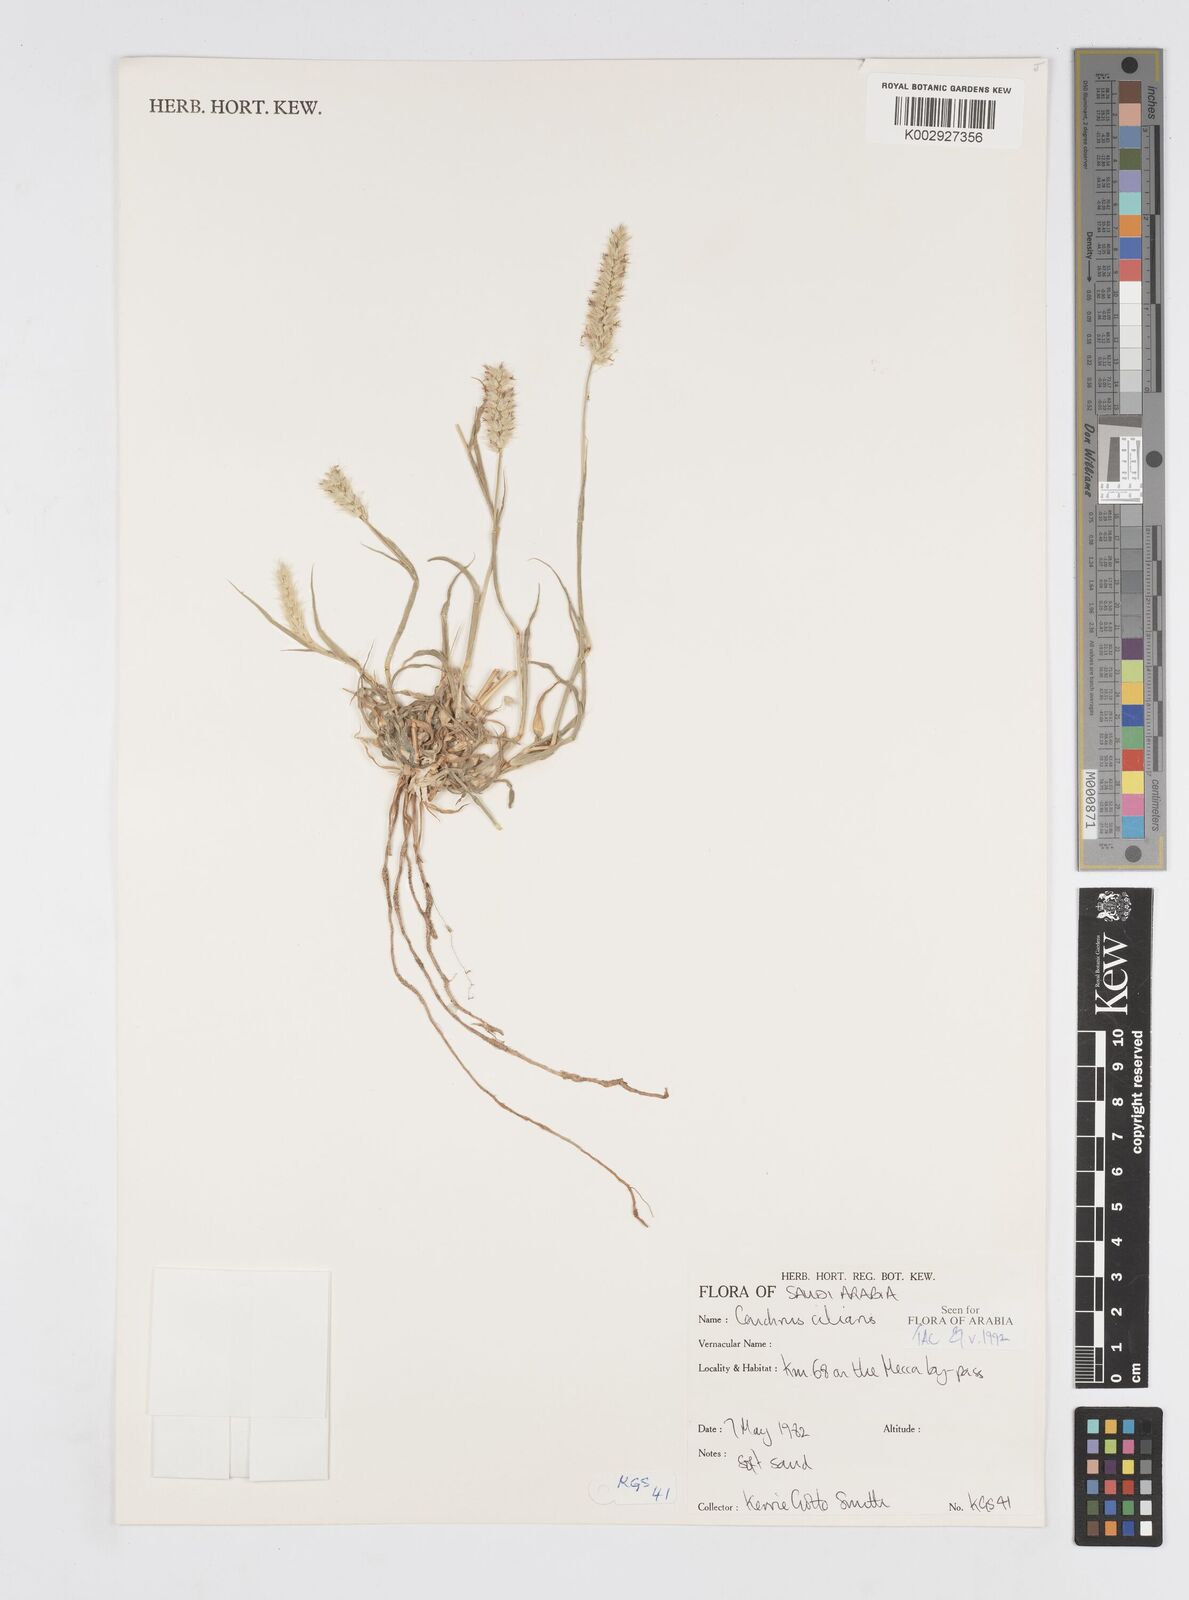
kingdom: Plantae
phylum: Tracheophyta
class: Liliopsida
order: Poales
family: Poaceae
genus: Cenchrus
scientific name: Cenchrus ciliaris
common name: Buffelgrass
